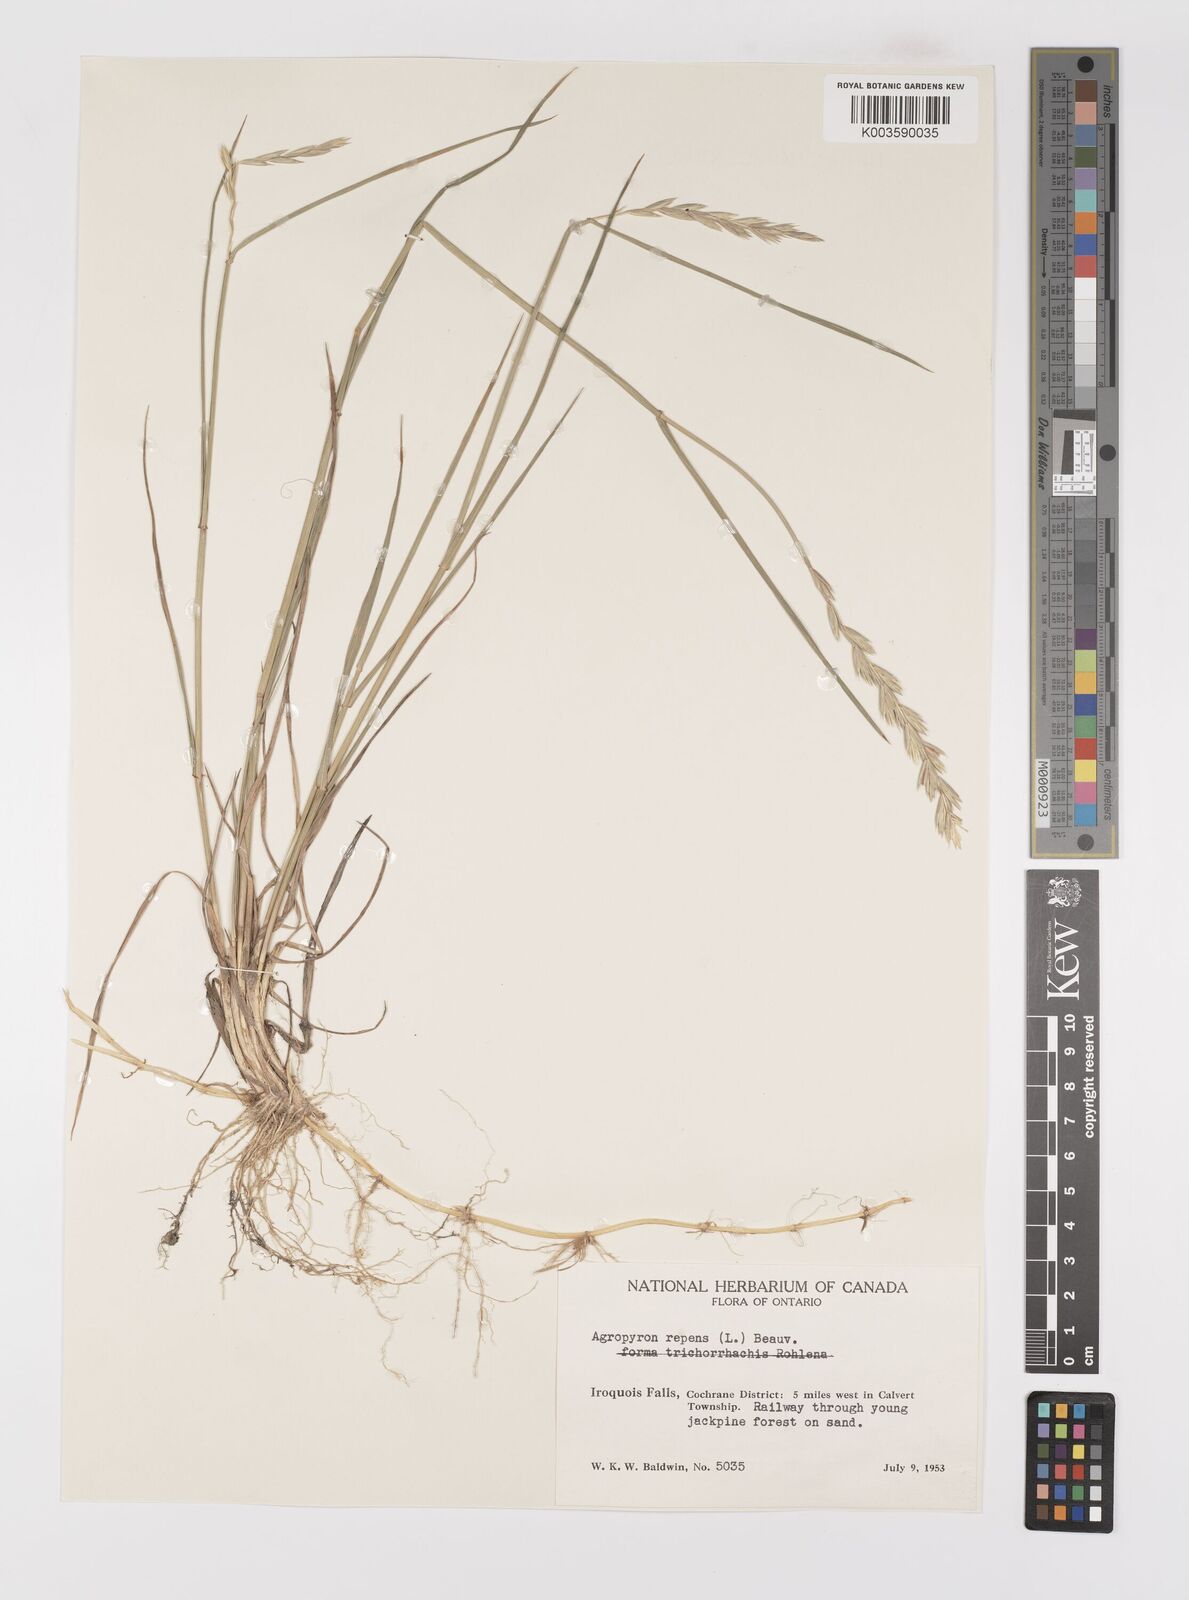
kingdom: Plantae
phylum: Tracheophyta
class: Liliopsida
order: Poales
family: Poaceae
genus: Elymus
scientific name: Elymus repens
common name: Quackgrass
